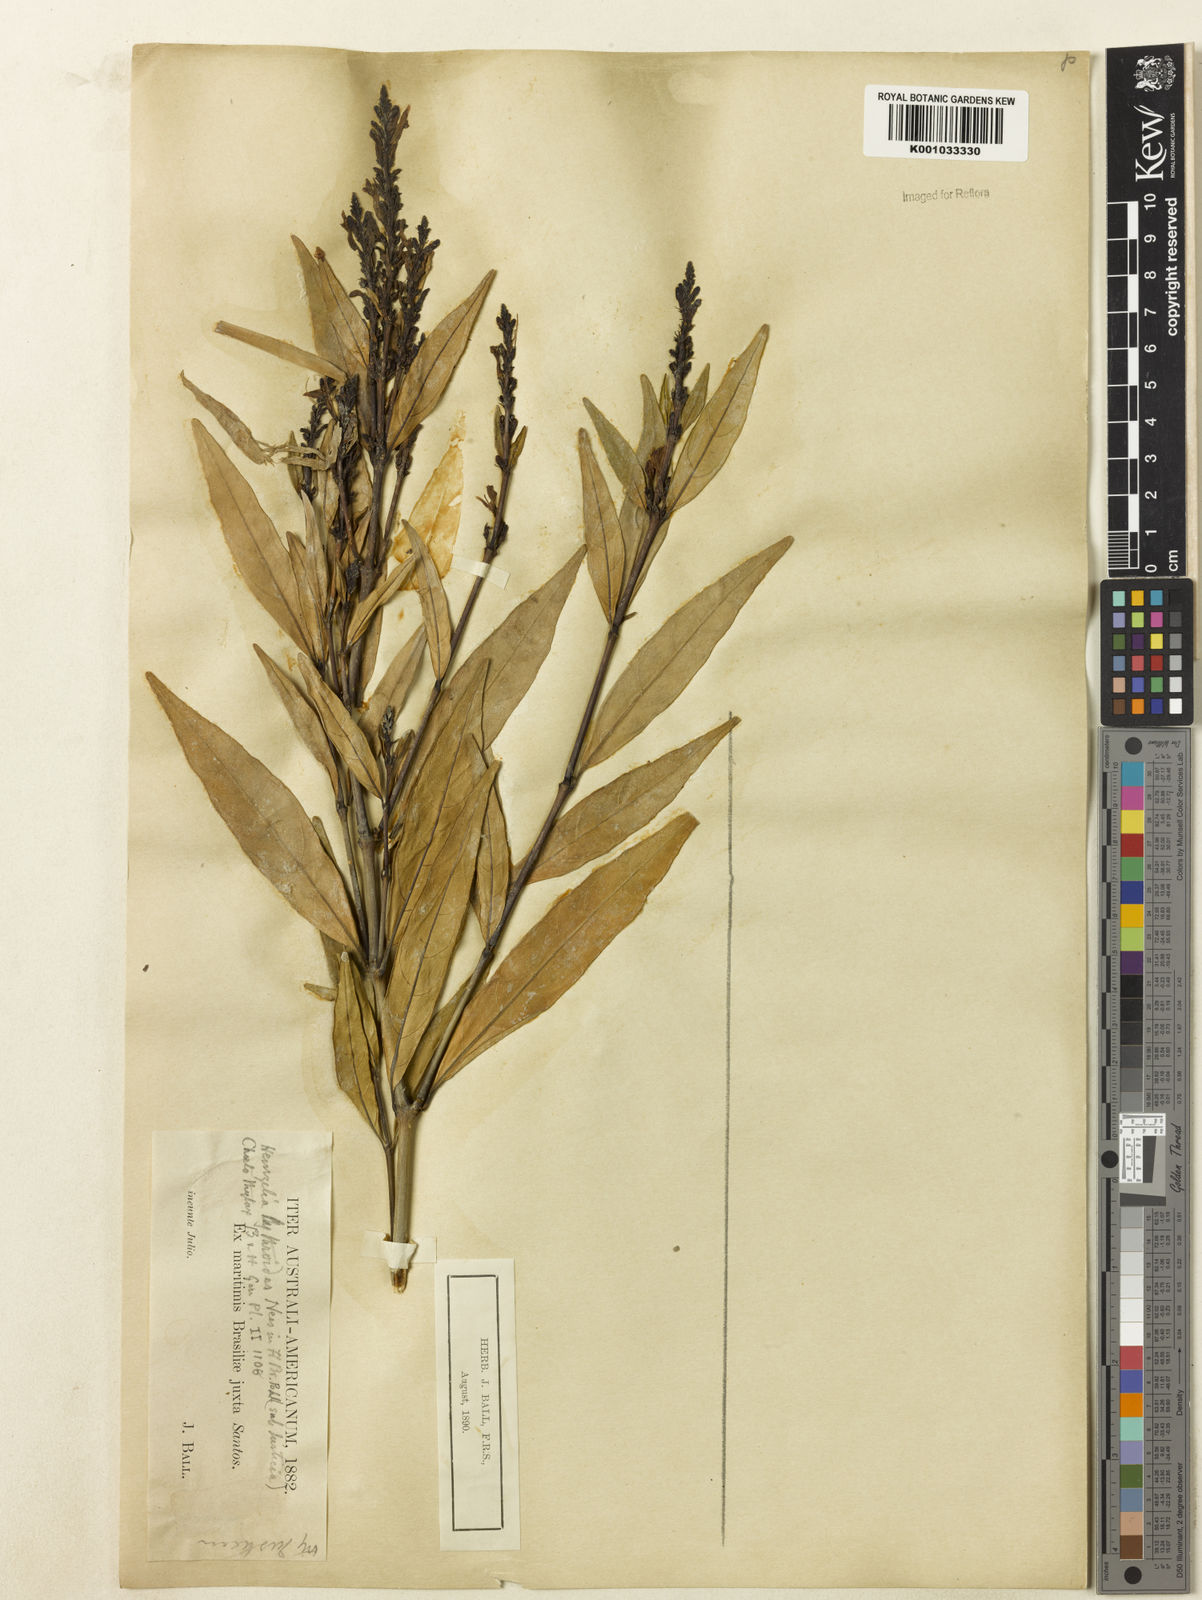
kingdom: Plantae
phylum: Tracheophyta
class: Magnoliopsida
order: Lamiales
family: Acanthaceae
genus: Justicia
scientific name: Justicia gendarussa
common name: Warer willow
